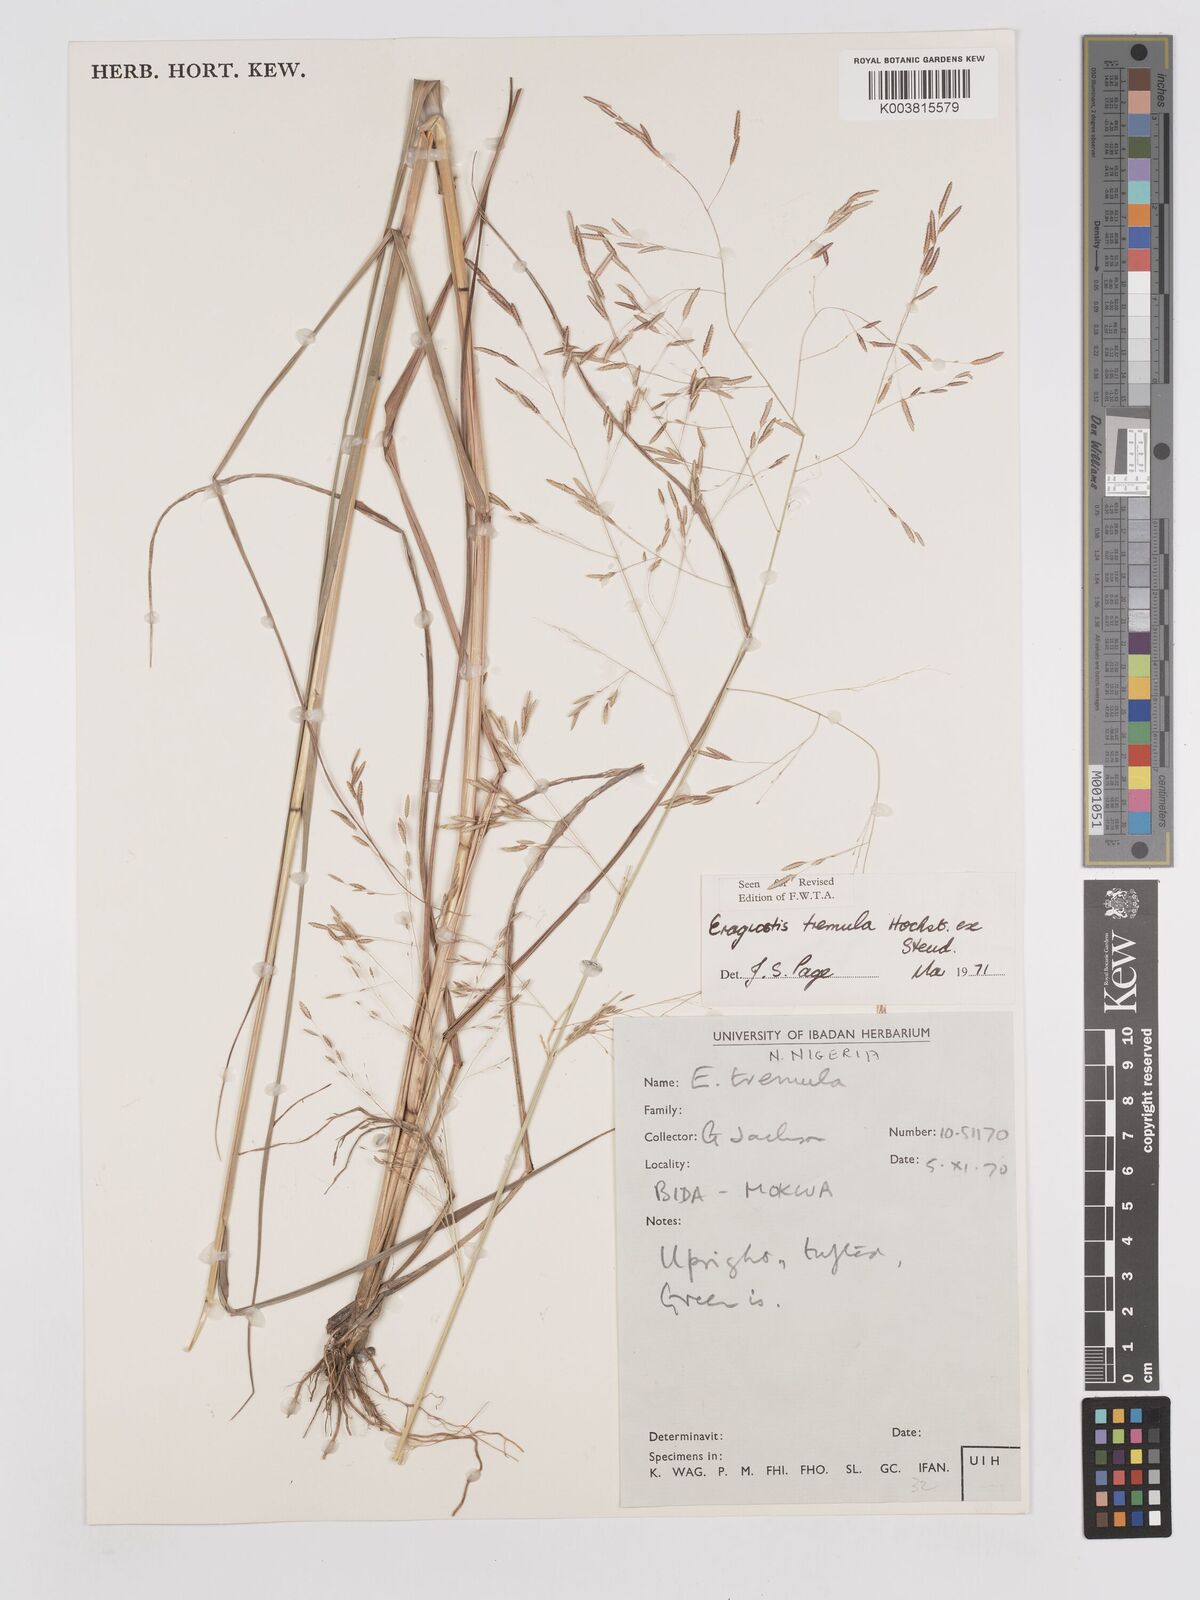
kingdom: Plantae
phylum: Tracheophyta
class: Liliopsida
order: Poales
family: Poaceae
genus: Eragrostis
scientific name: Eragrostis tremula
